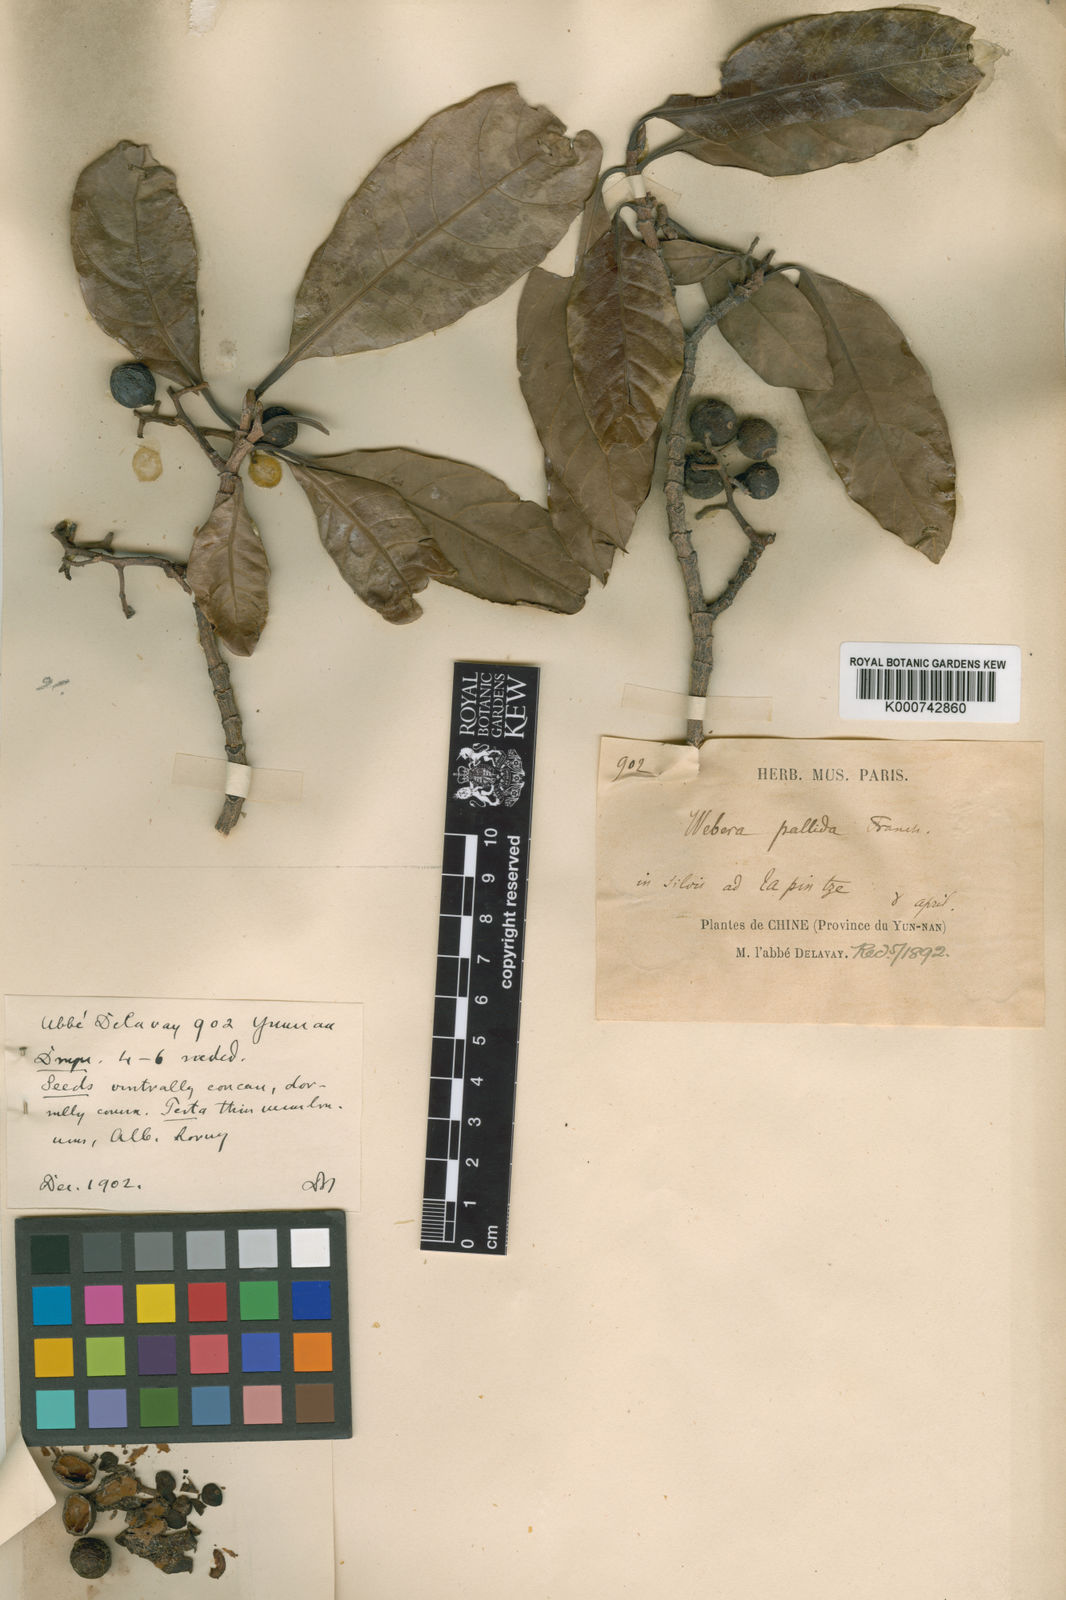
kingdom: Plantae
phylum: Tracheophyta
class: Magnoliopsida
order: Gentianales
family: Rubiaceae
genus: Tarennoidea
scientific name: Tarennoidea
